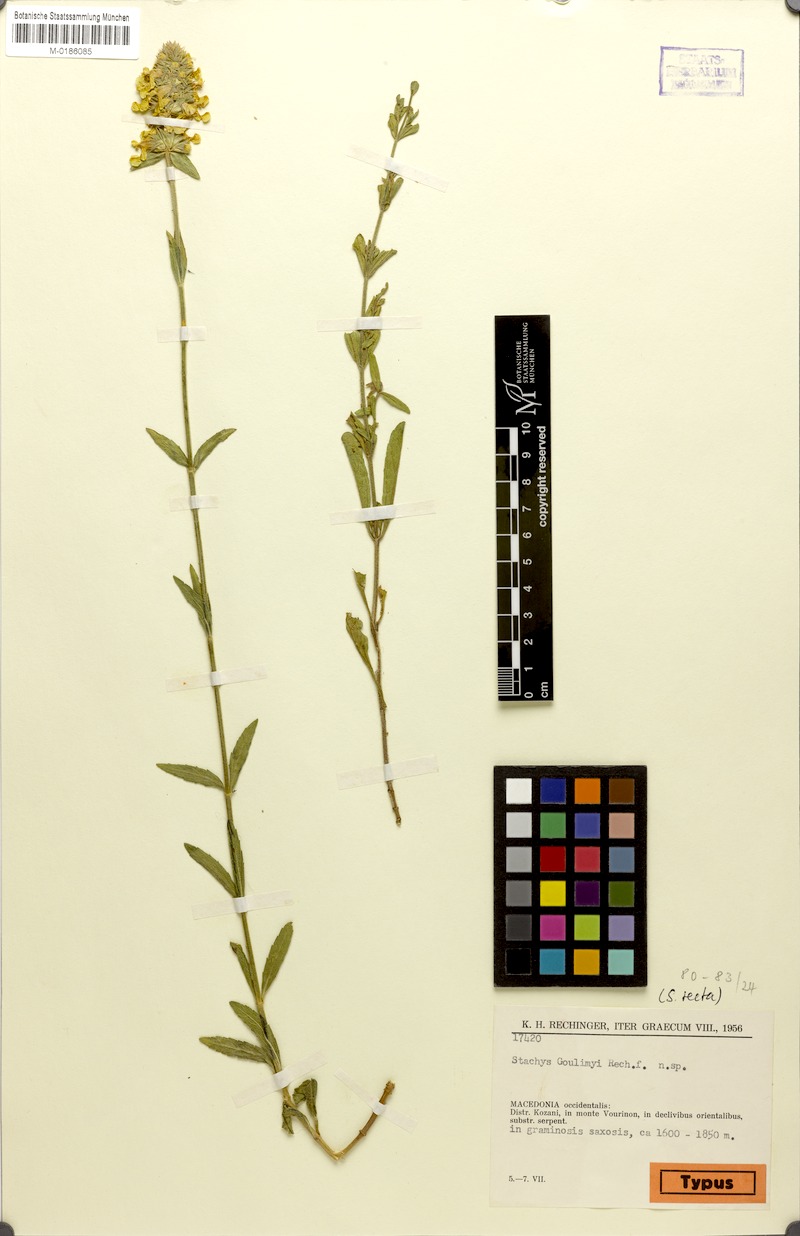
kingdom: Plantae
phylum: Tracheophyta
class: Magnoliopsida
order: Lamiales
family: Lamiaceae
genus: Stachys
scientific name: Stachys recta
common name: Perennial yellow-woundwort
